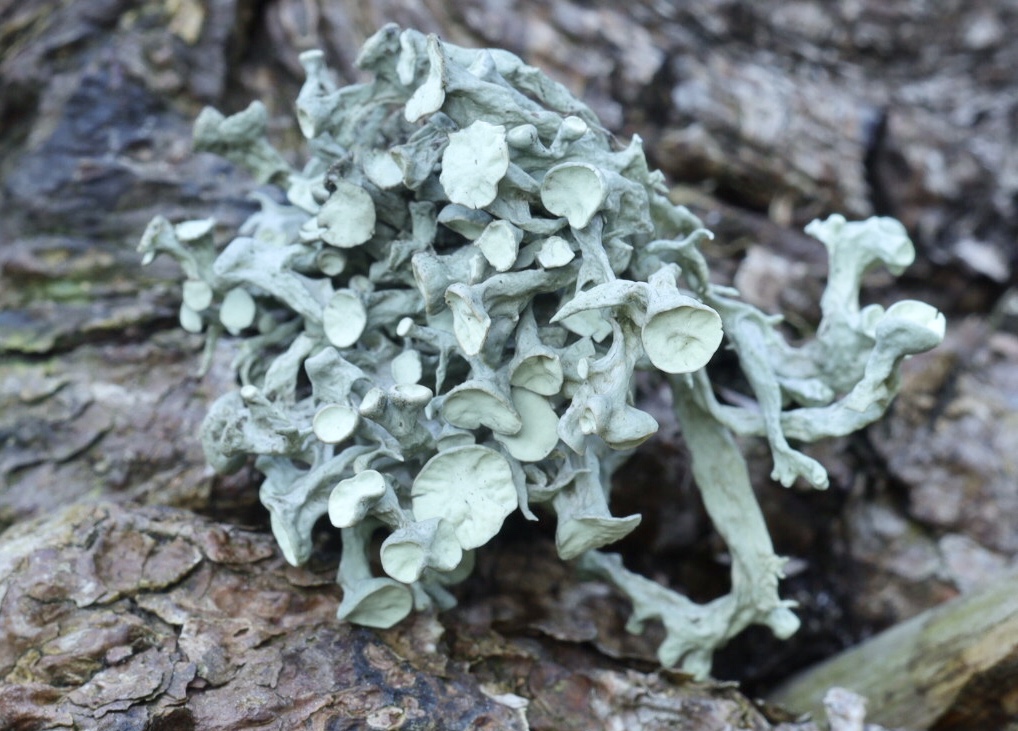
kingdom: Fungi
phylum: Ascomycota
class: Lecanoromycetes
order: Lecanorales
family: Ramalinaceae
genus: Ramalina
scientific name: Ramalina fastigiata
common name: tue-grenlav
